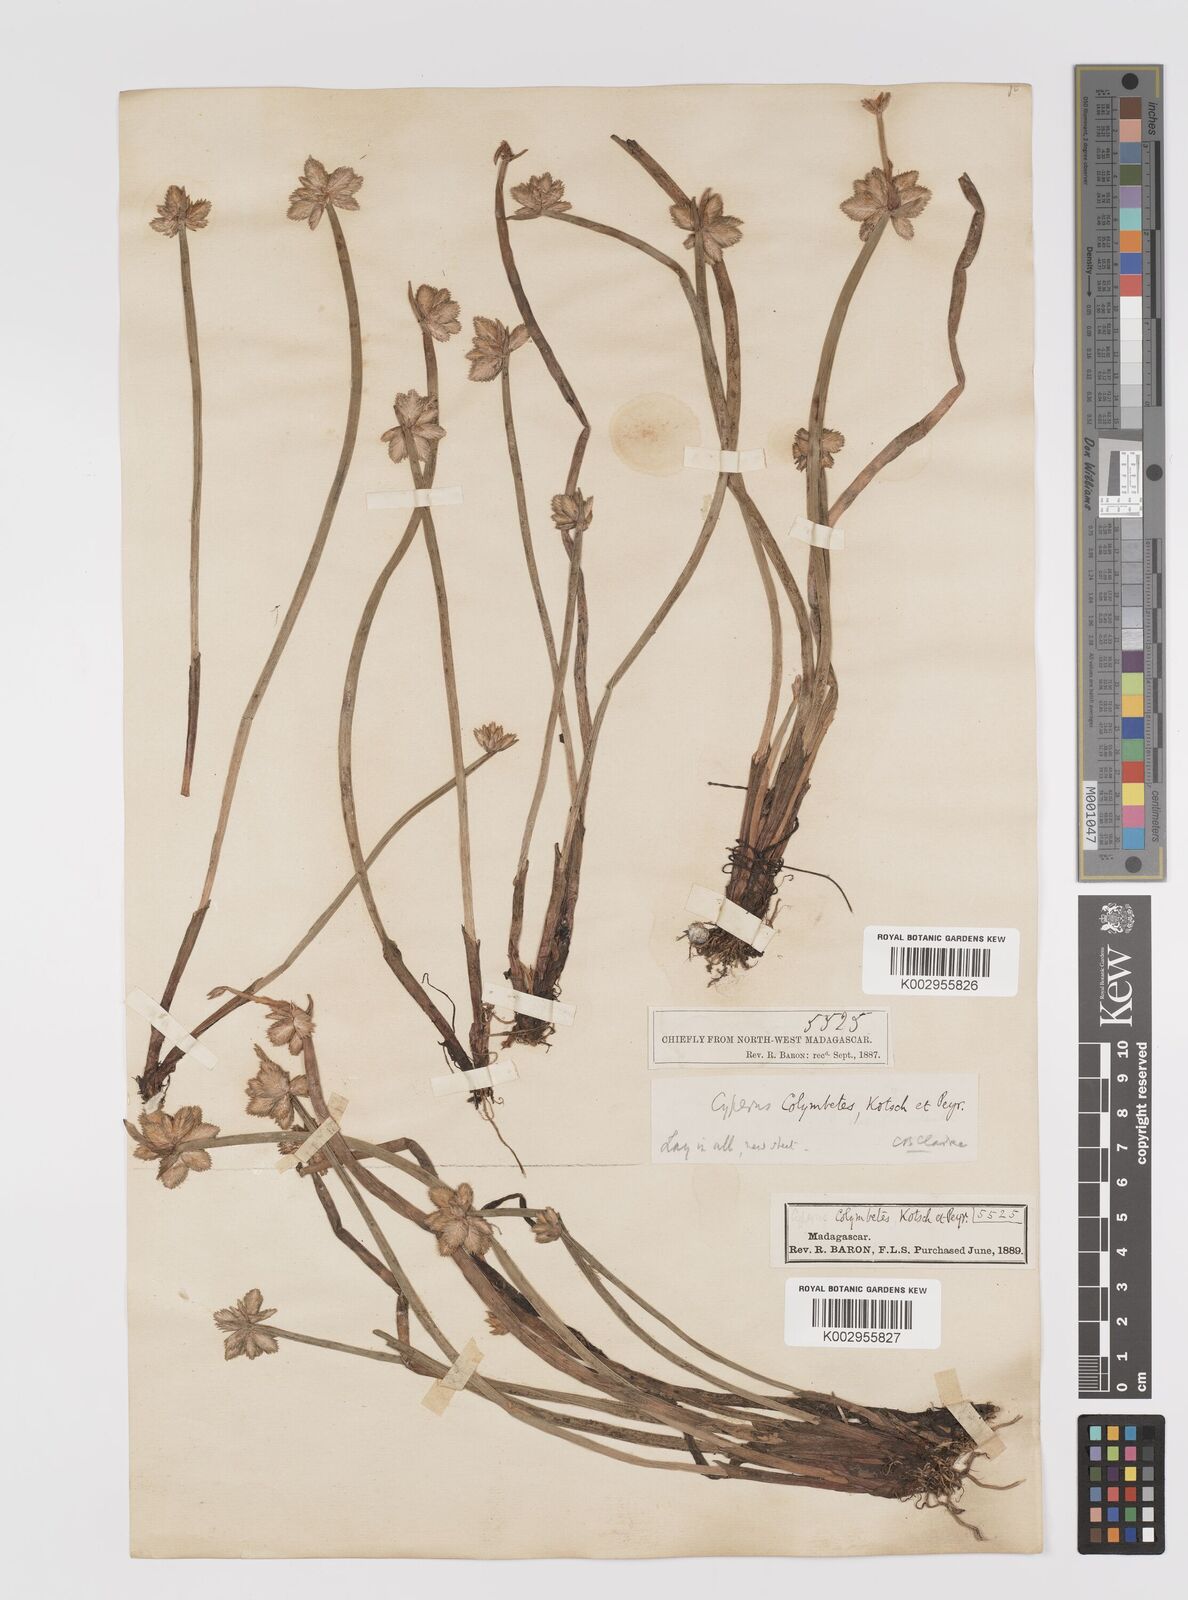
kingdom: Plantae
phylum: Tracheophyta
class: Liliopsida
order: Poales
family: Cyperaceae
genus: Cyperus
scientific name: Cyperus colymbetes
